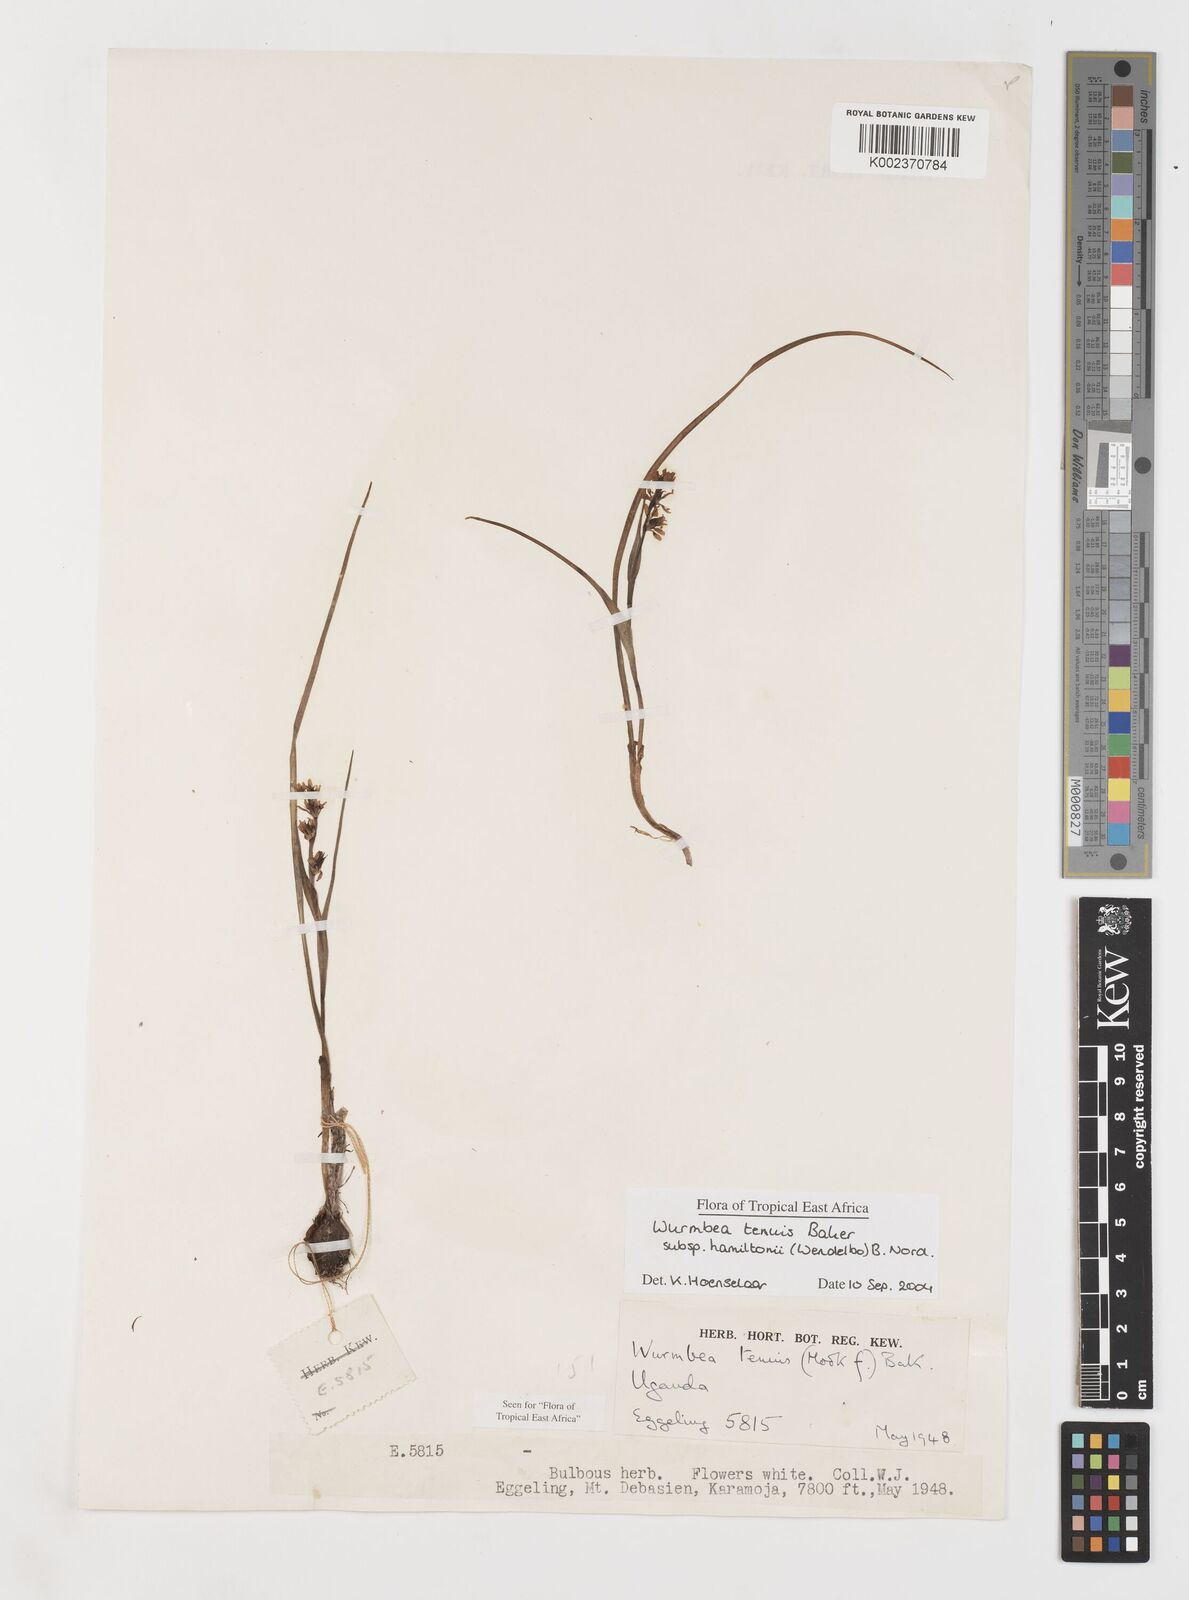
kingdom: Plantae
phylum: Tracheophyta
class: Liliopsida
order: Liliales
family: Colchicaceae
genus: Wurmbea
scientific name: Wurmbea tenuis
